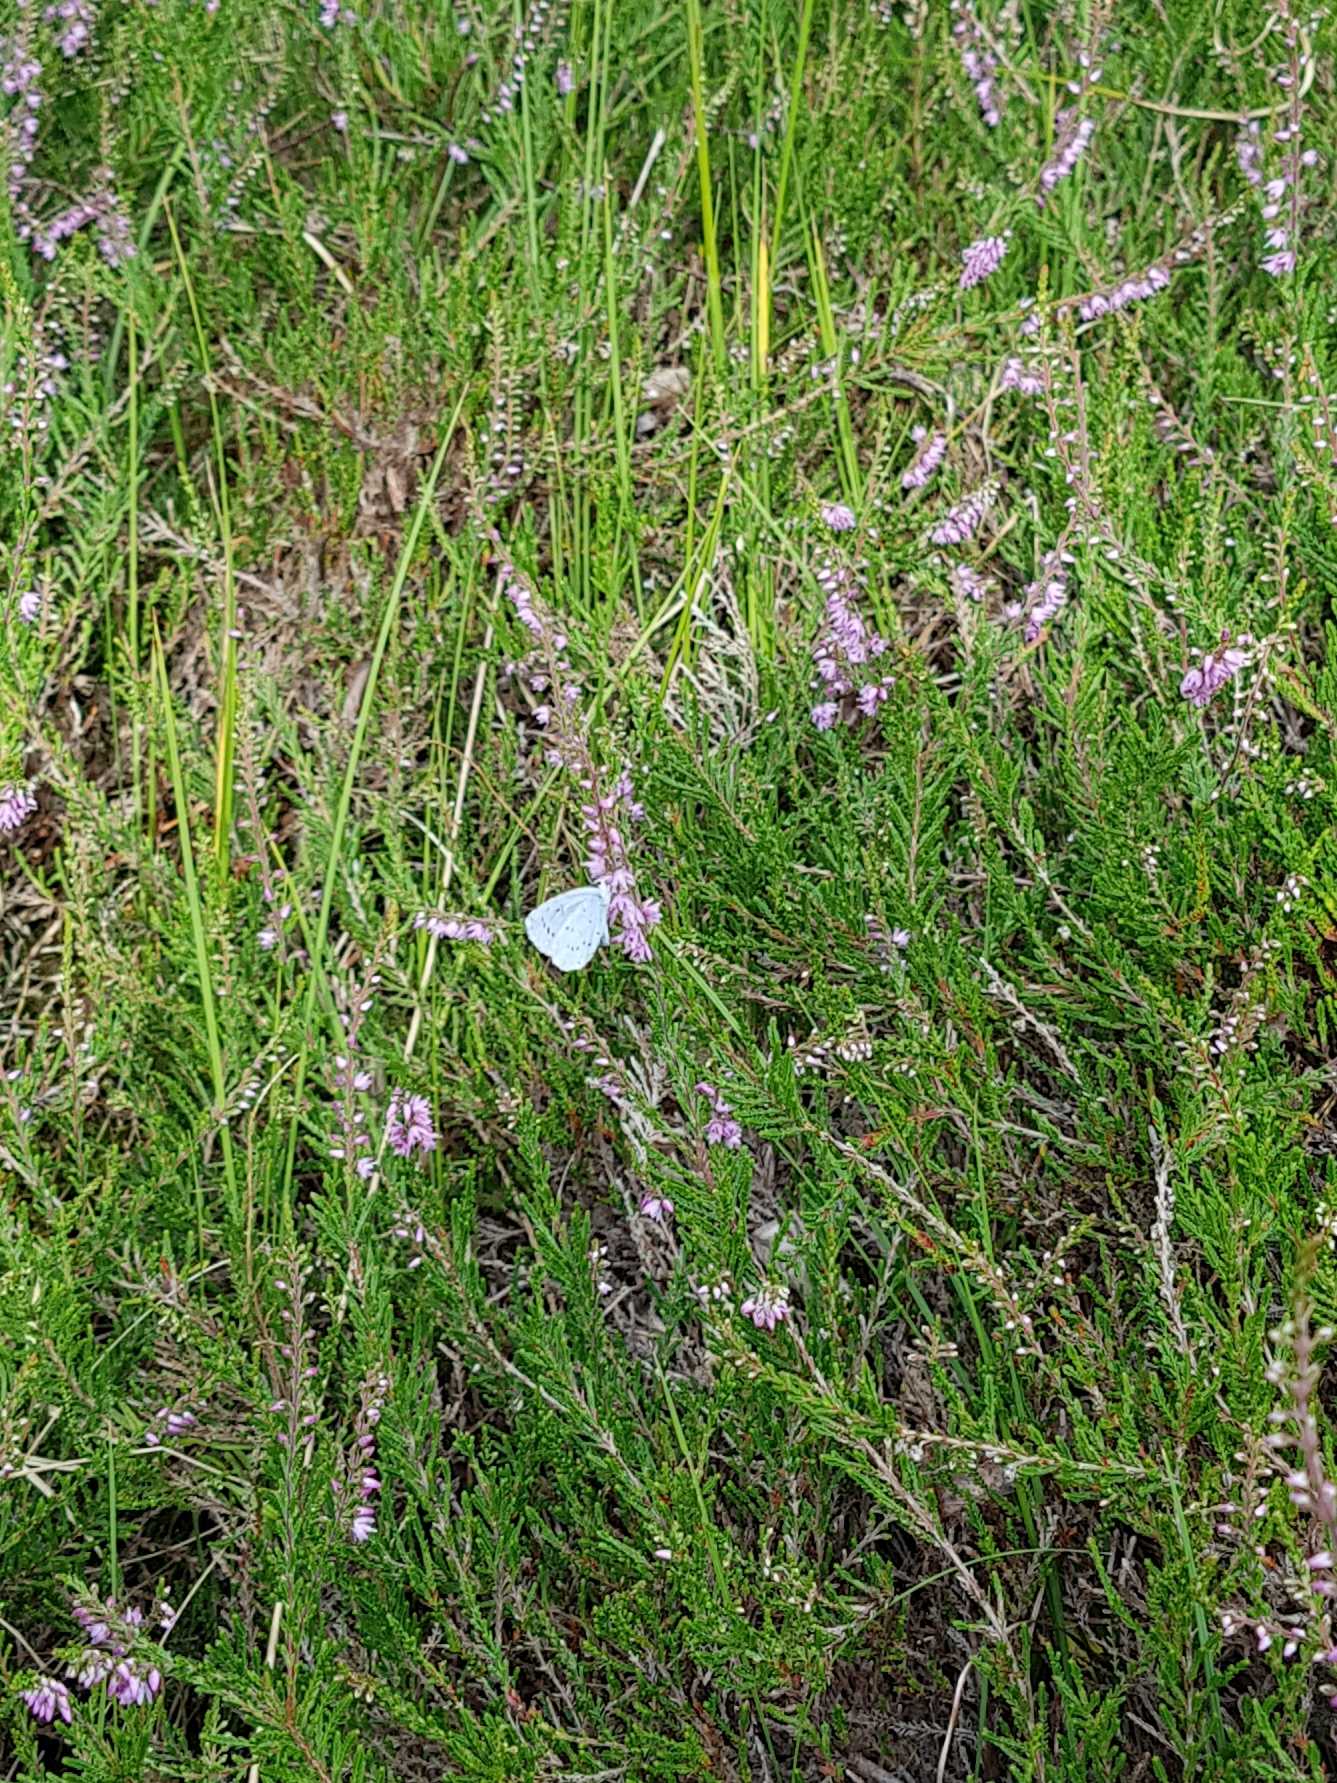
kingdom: Animalia
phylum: Arthropoda
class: Insecta
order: Lepidoptera
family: Lycaenidae
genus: Polyommatus
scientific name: Polyommatus icarus
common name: Almindelig blåfugl
